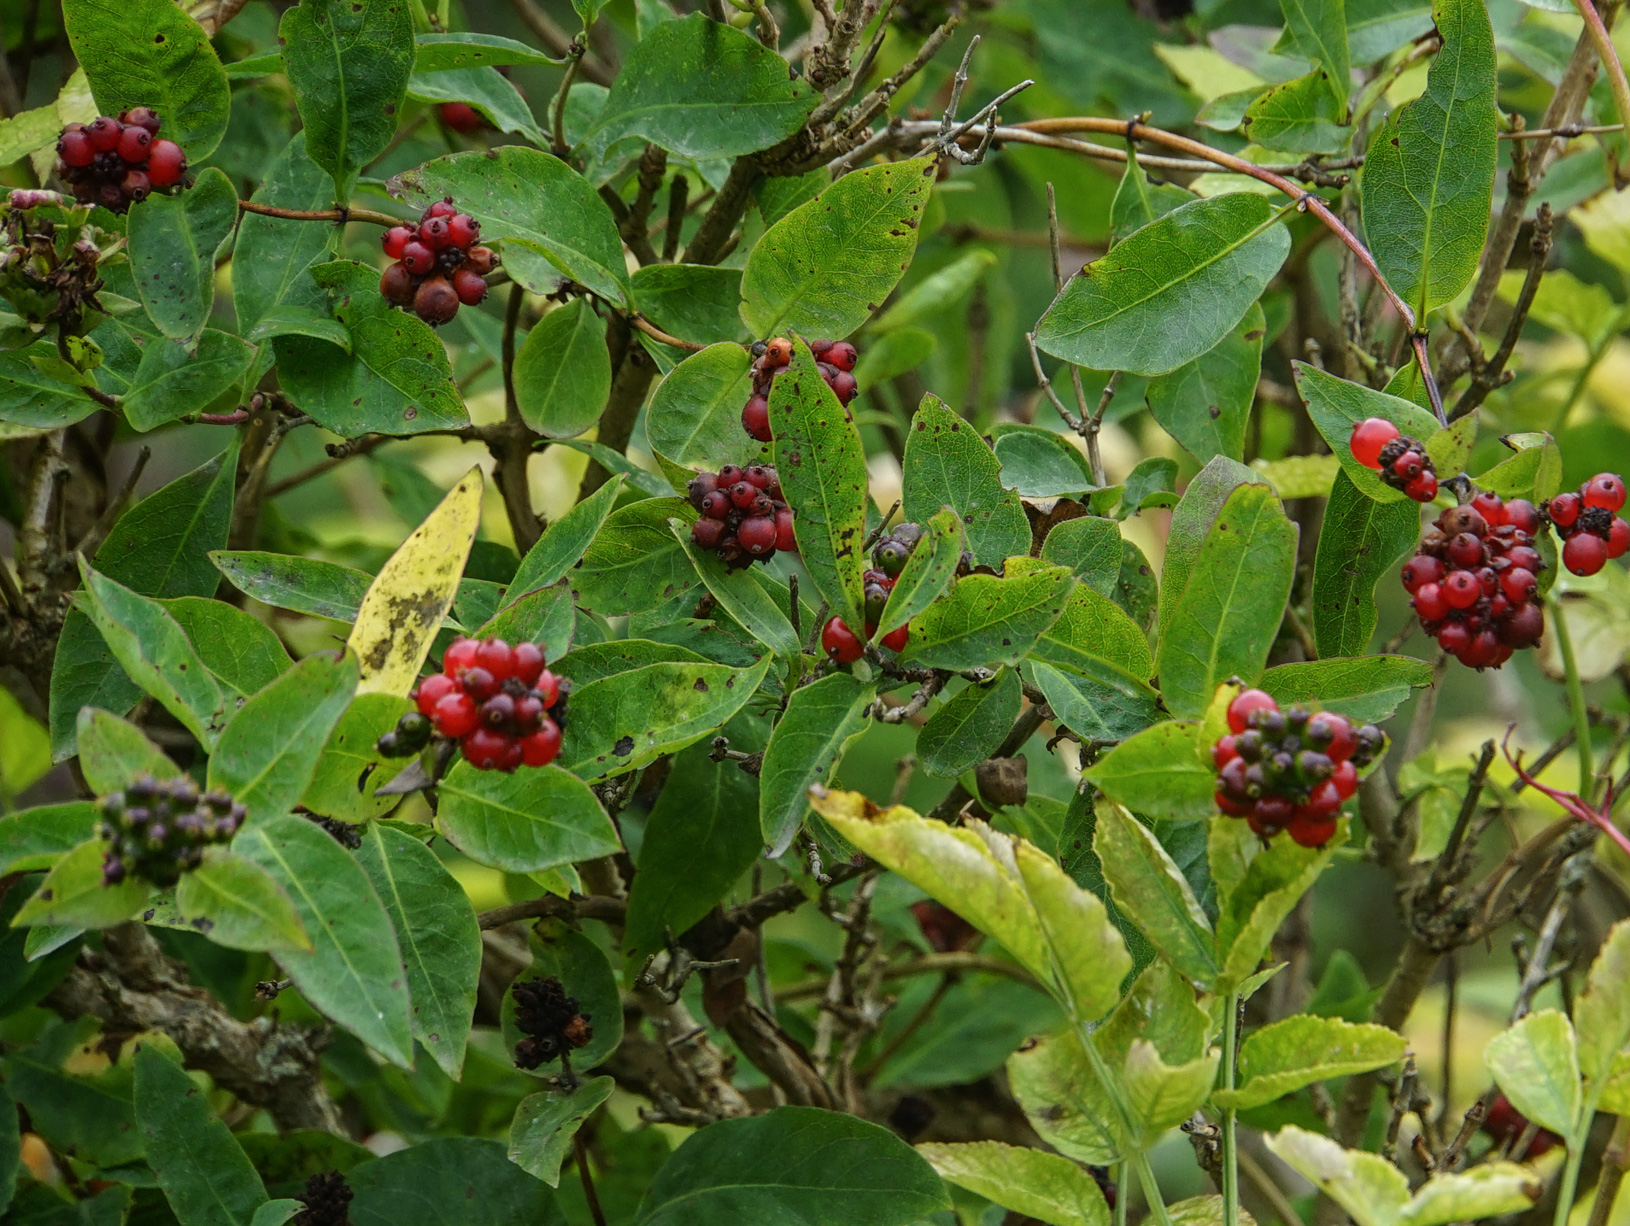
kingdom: Plantae
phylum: Tracheophyta
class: Magnoliopsida
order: Dipsacales
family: Caprifoliaceae
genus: Lonicera
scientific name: Lonicera periclymenum
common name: European honeysuckle
